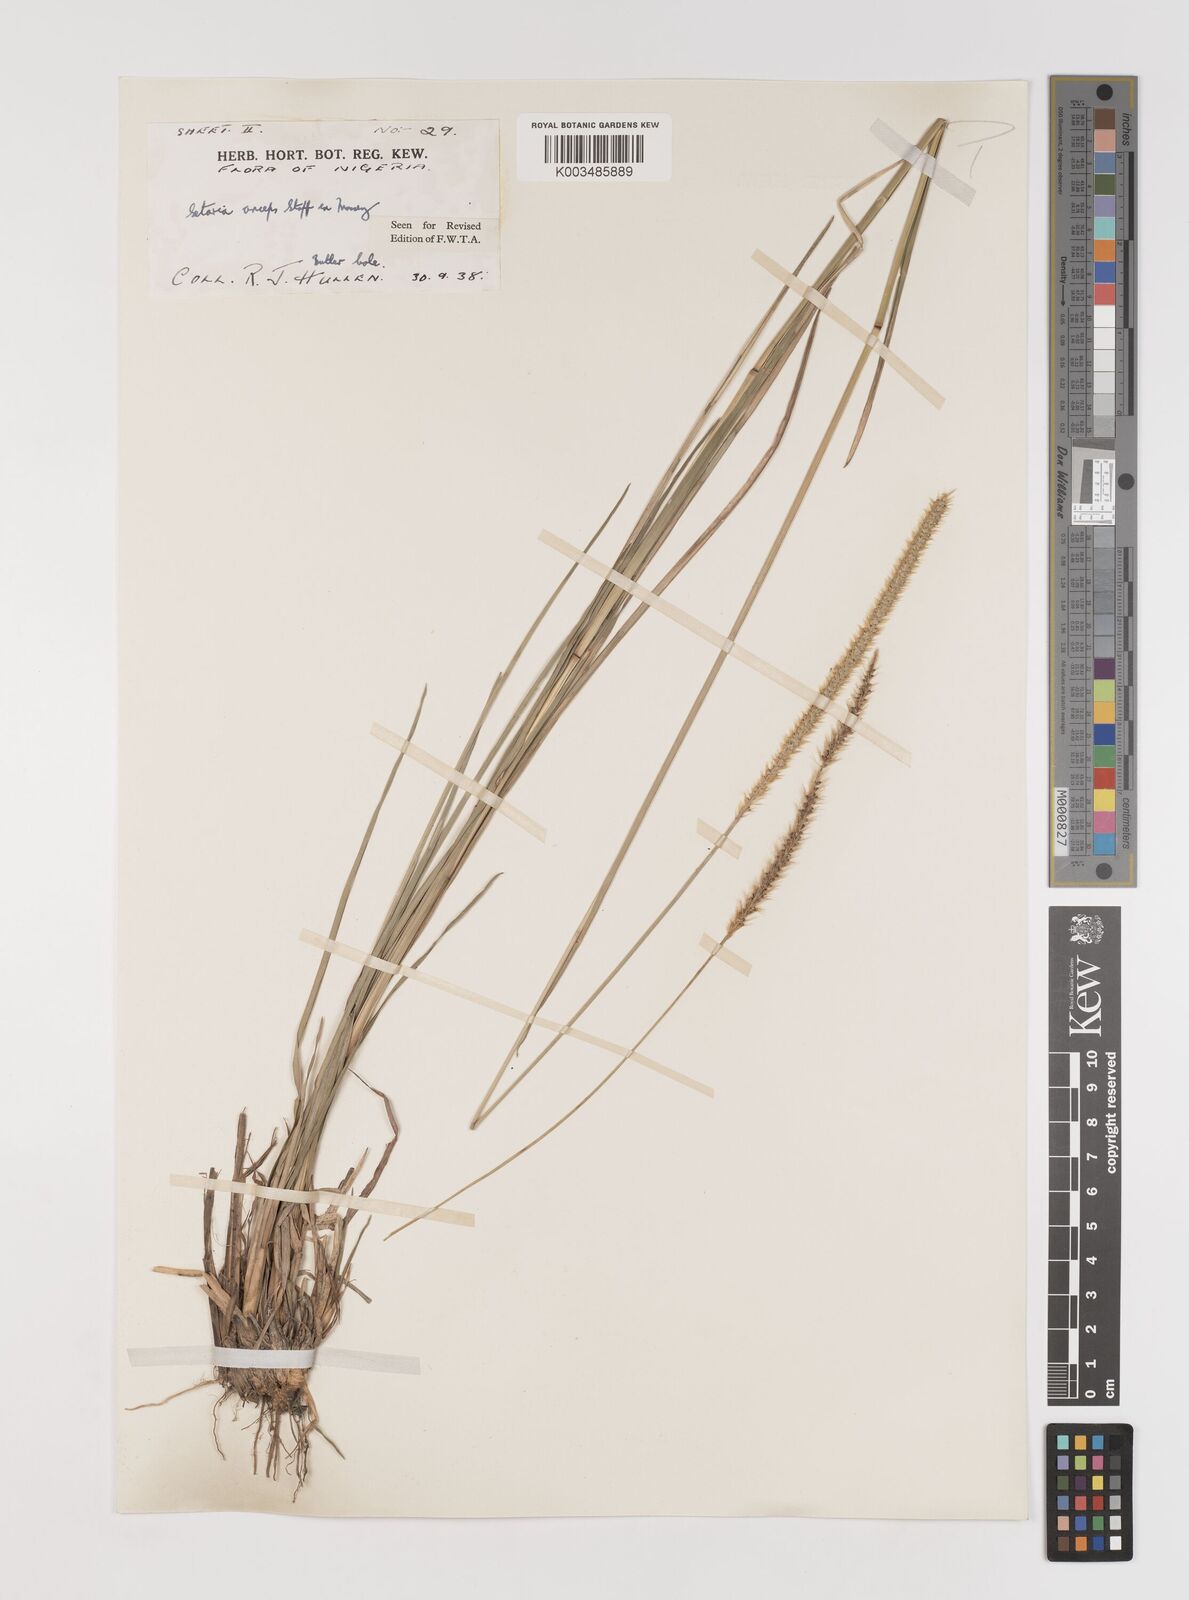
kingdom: Plantae
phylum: Tracheophyta
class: Liliopsida
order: Poales
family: Poaceae
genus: Setaria
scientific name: Setaria sphacelata
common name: African bristlegrass
